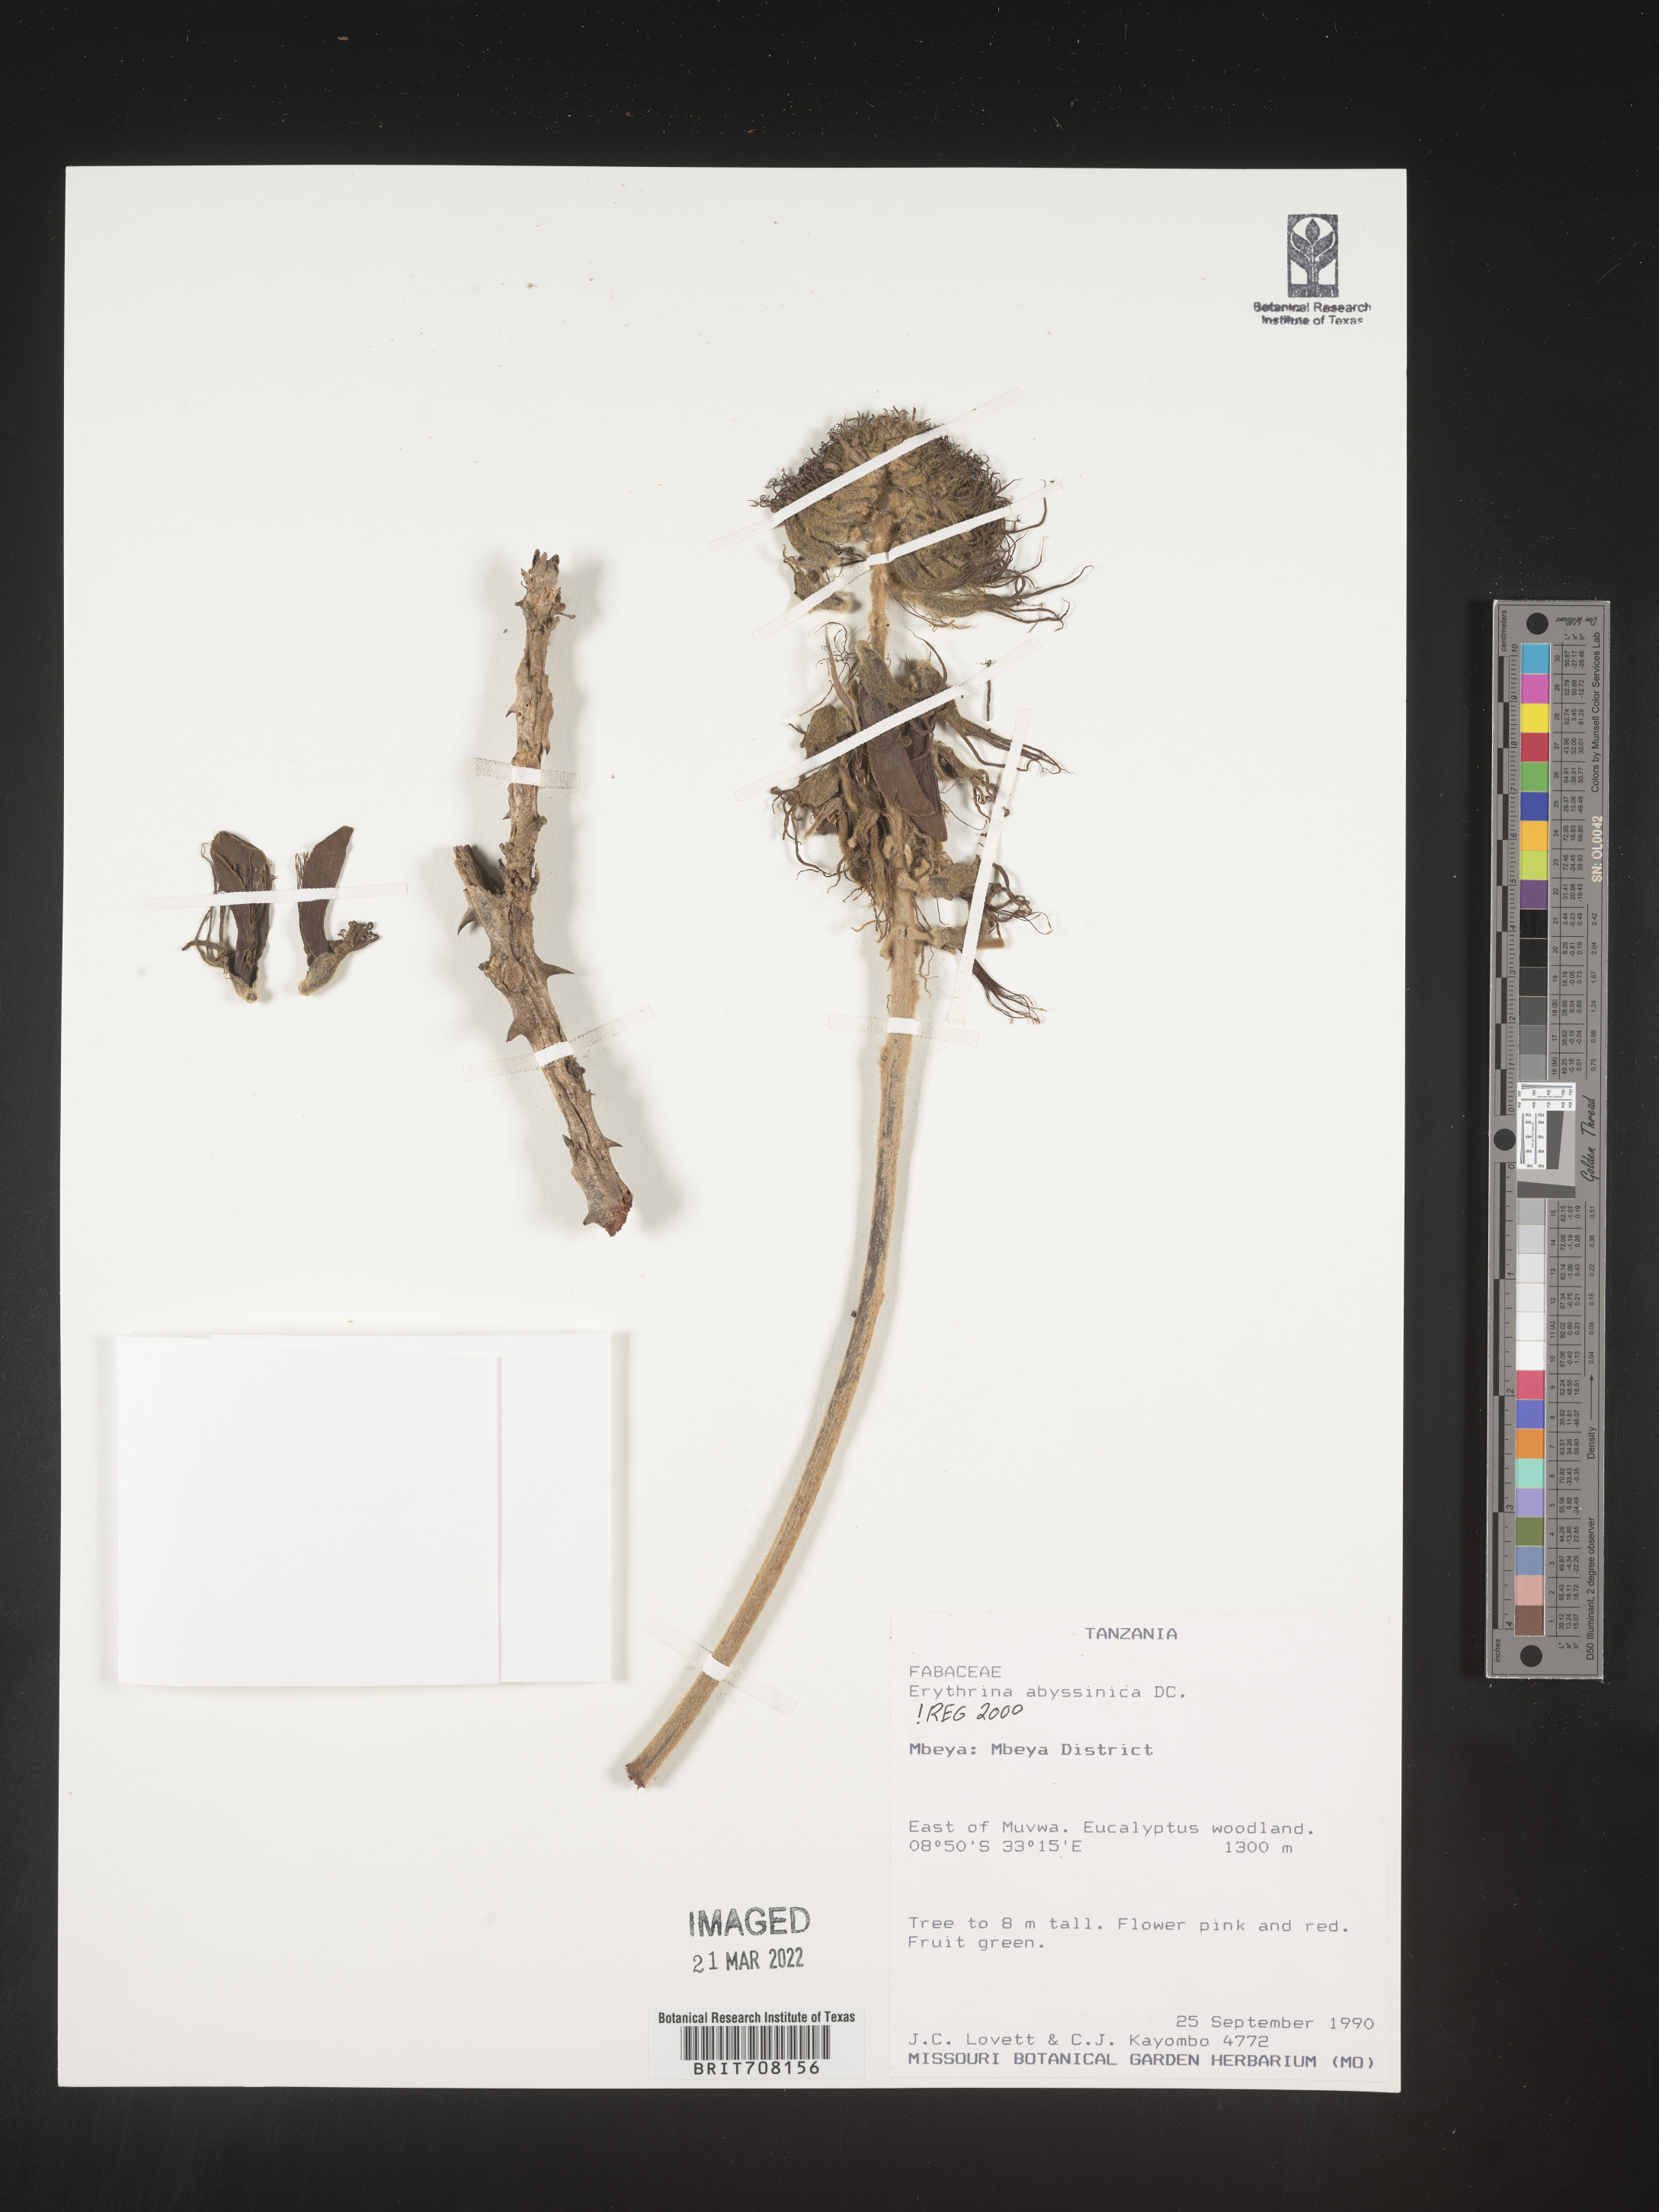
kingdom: Plantae
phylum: Tracheophyta
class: Magnoliopsida
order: Fabales
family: Fabaceae
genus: Erythrina
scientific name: Erythrina
